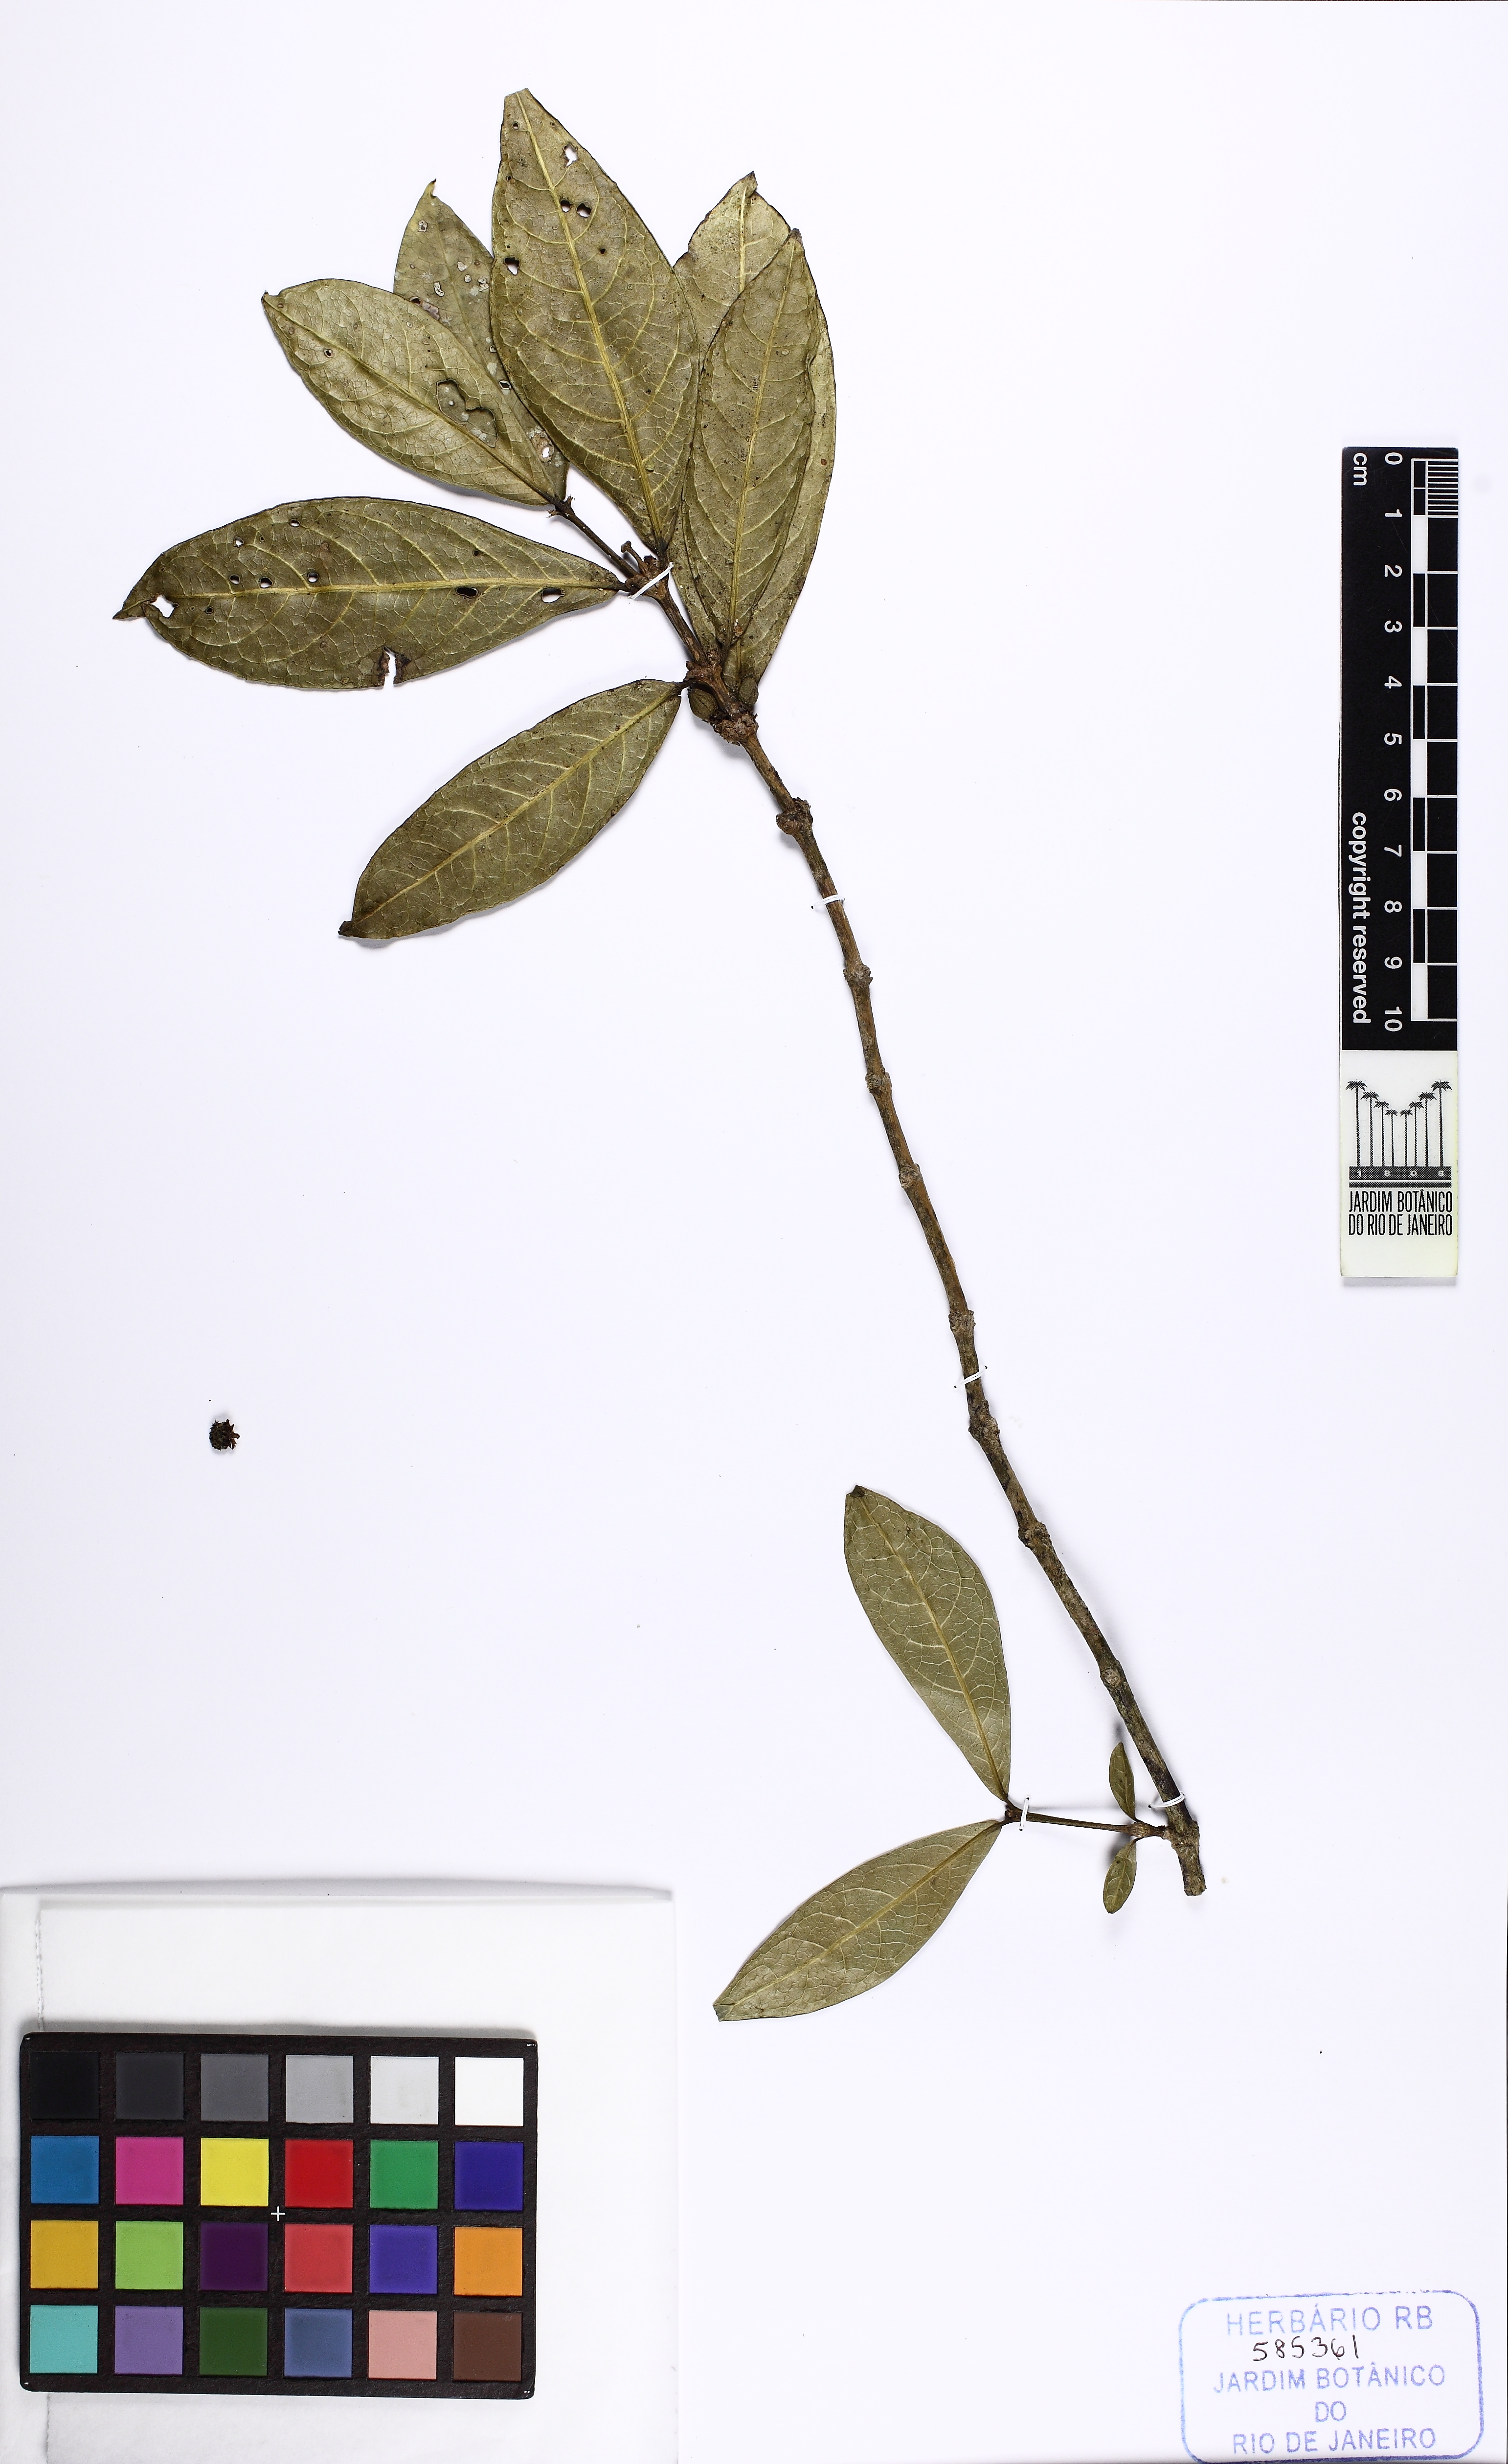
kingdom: Plantae
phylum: Tracheophyta
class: Magnoliopsida
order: Gentianales
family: Rubiaceae
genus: Rudgea
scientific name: Rudgea axilliflora
